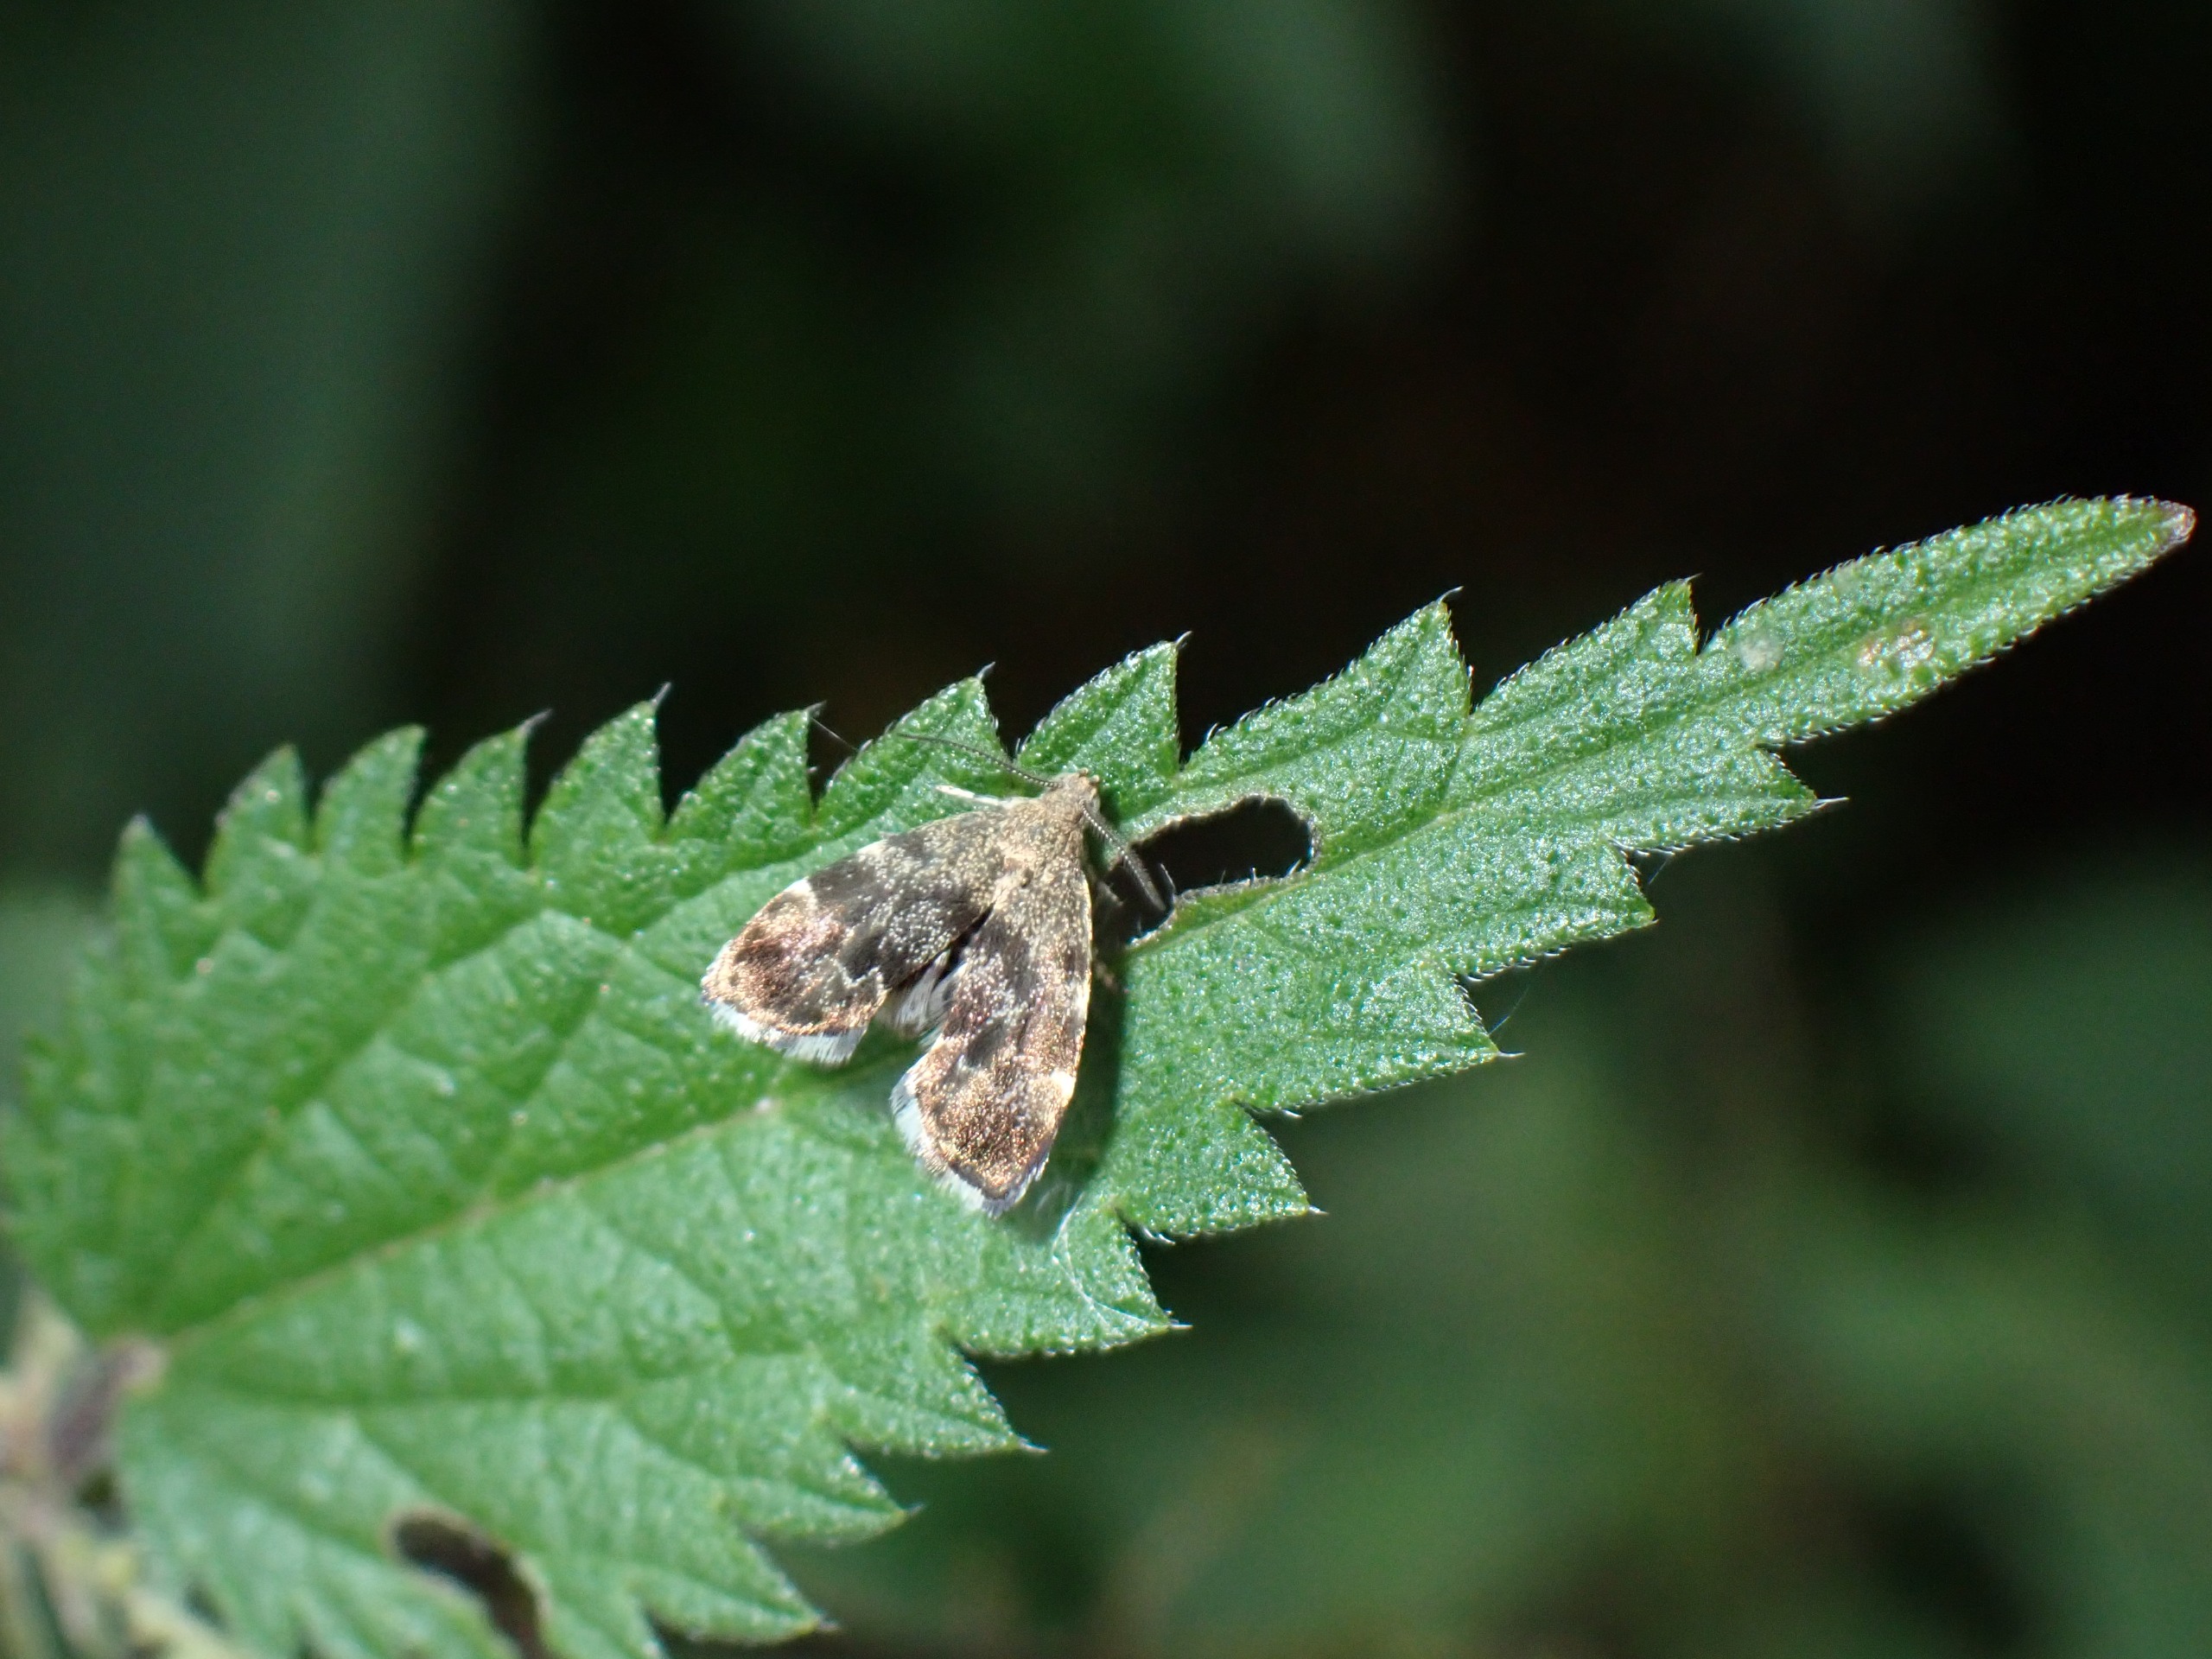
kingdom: Animalia
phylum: Arthropoda
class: Insecta
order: Lepidoptera
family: Choreutidae
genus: Anthophila
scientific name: Anthophila fabriciana
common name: Bredvinget nældevikler
